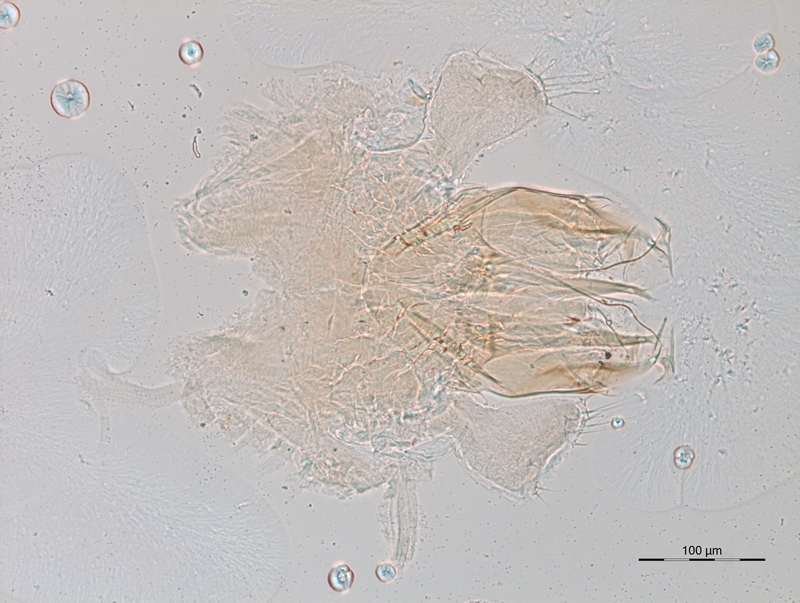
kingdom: Animalia
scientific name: Animalia
